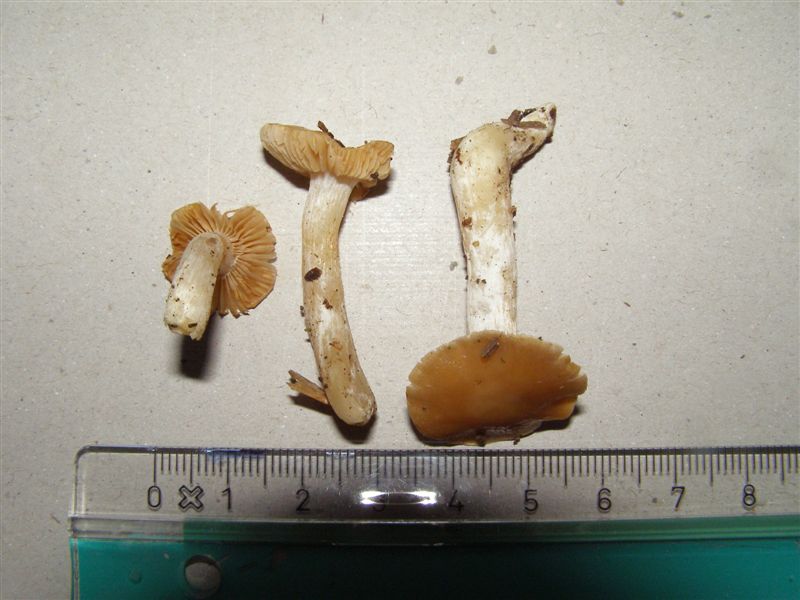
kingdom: Fungi
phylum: Basidiomycota
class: Agaricomycetes
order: Agaricales
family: Cortinariaceae
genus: Thaxterogaster
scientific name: Thaxterogaster pluvius
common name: hvidgul slørhat
